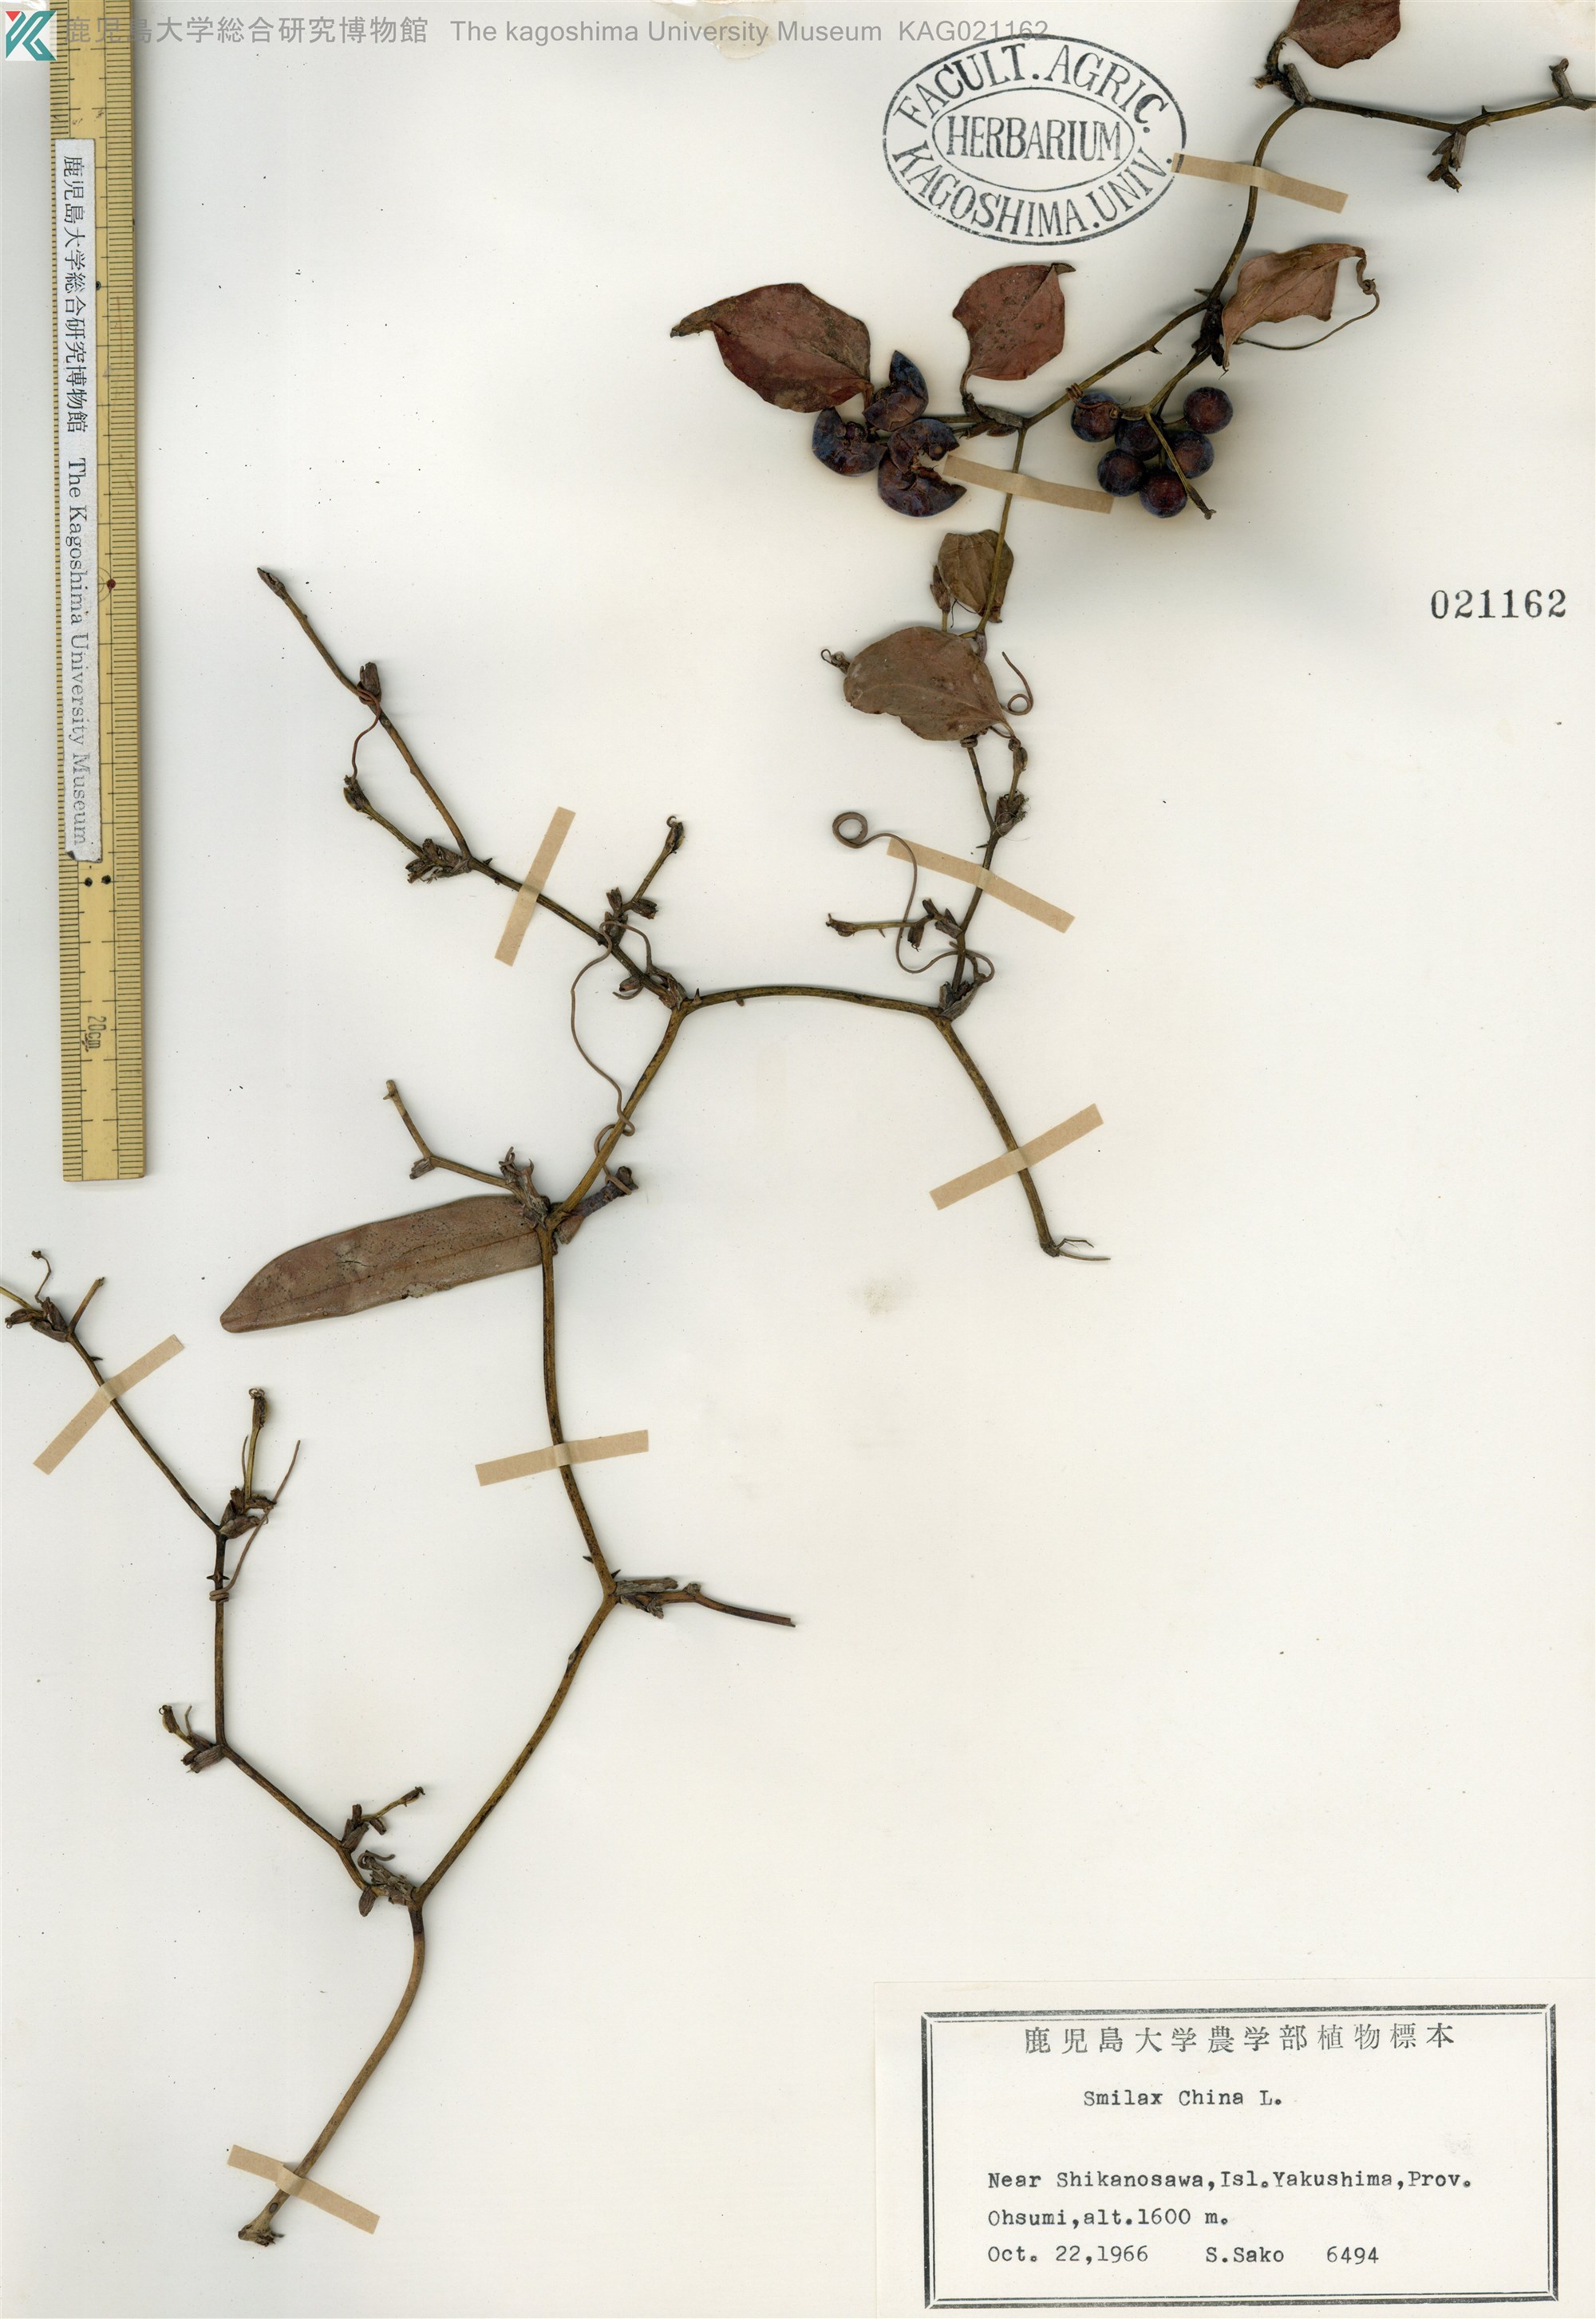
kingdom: Plantae
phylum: Tracheophyta
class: Liliopsida
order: Liliales
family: Smilacaceae
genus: Smilax
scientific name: Smilax china
